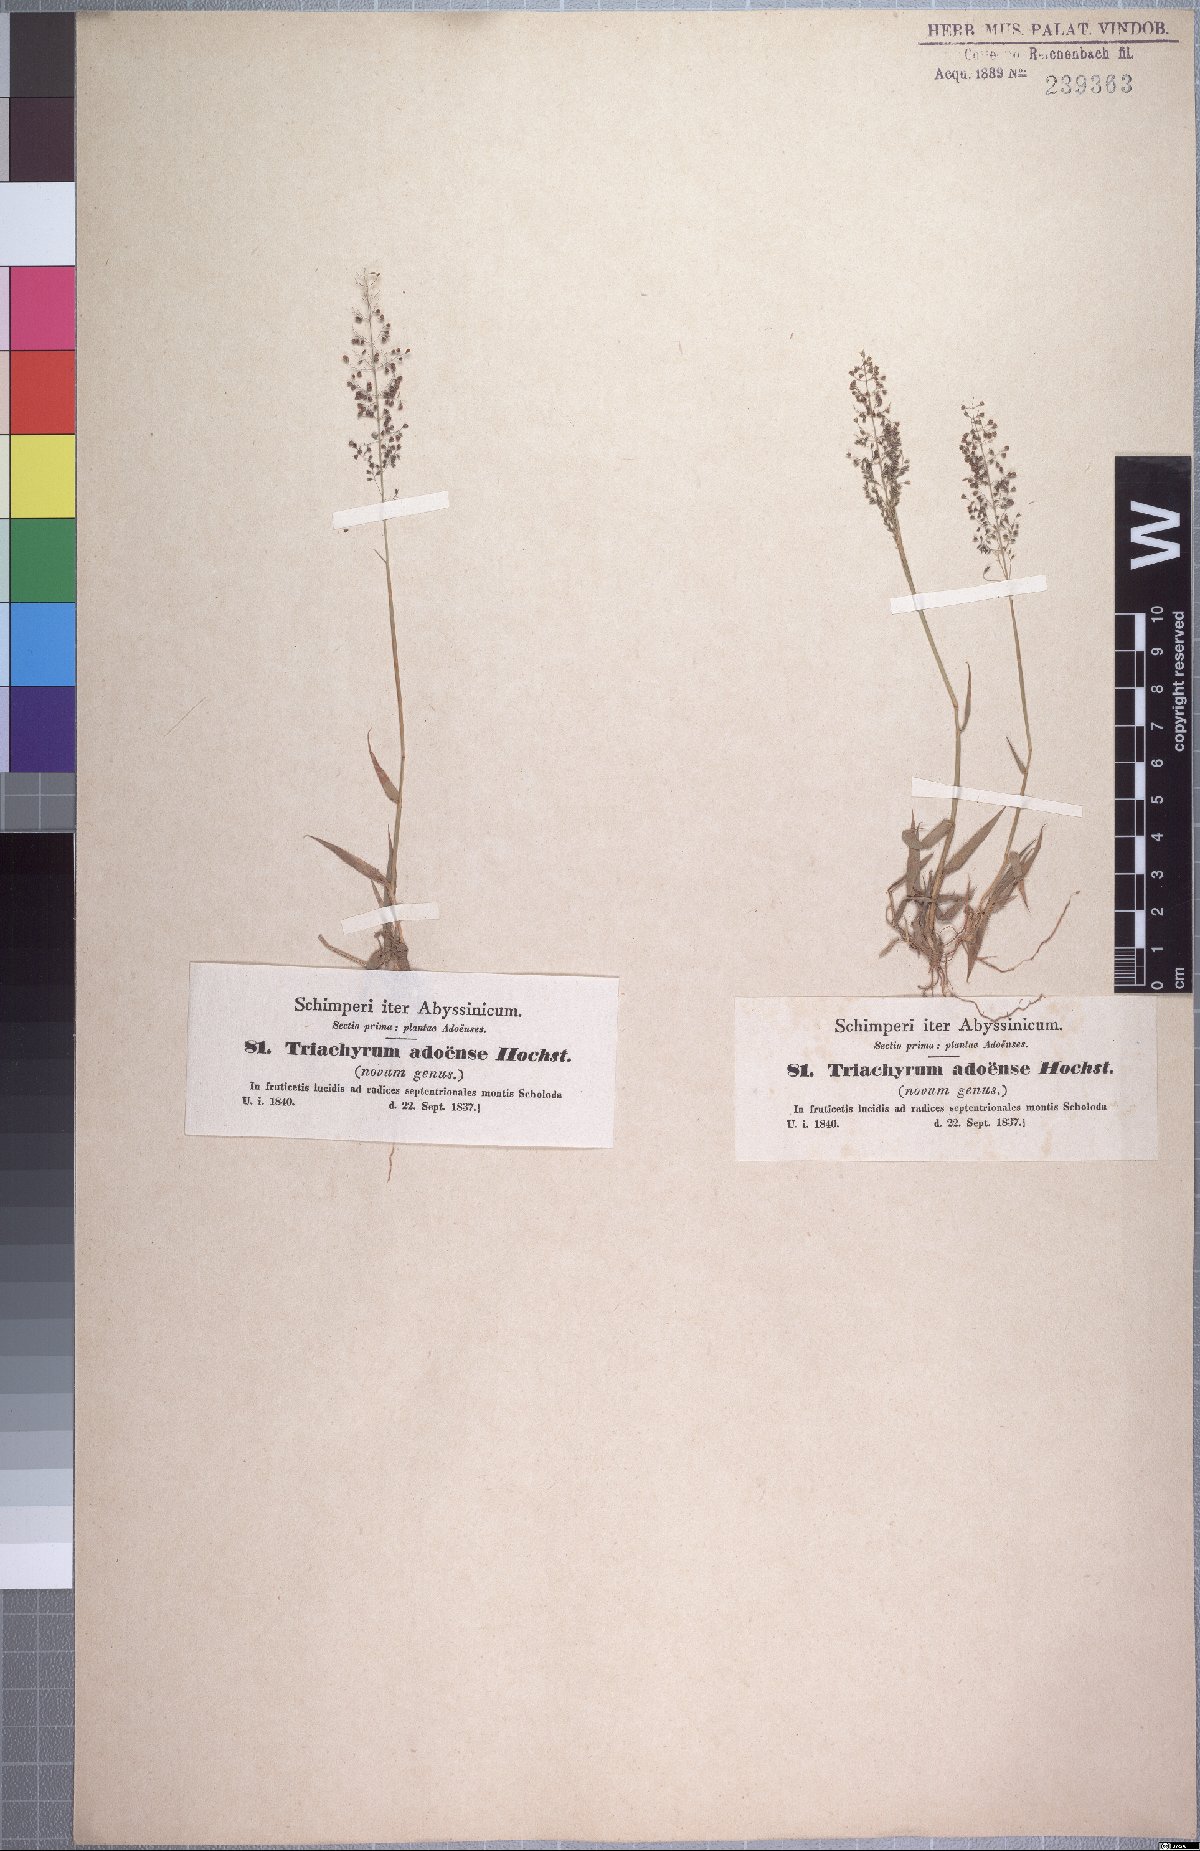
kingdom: Plantae
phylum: Tracheophyta
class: Liliopsida
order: Poales
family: Poaceae
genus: Sporobolus
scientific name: Sporobolus discosporus
